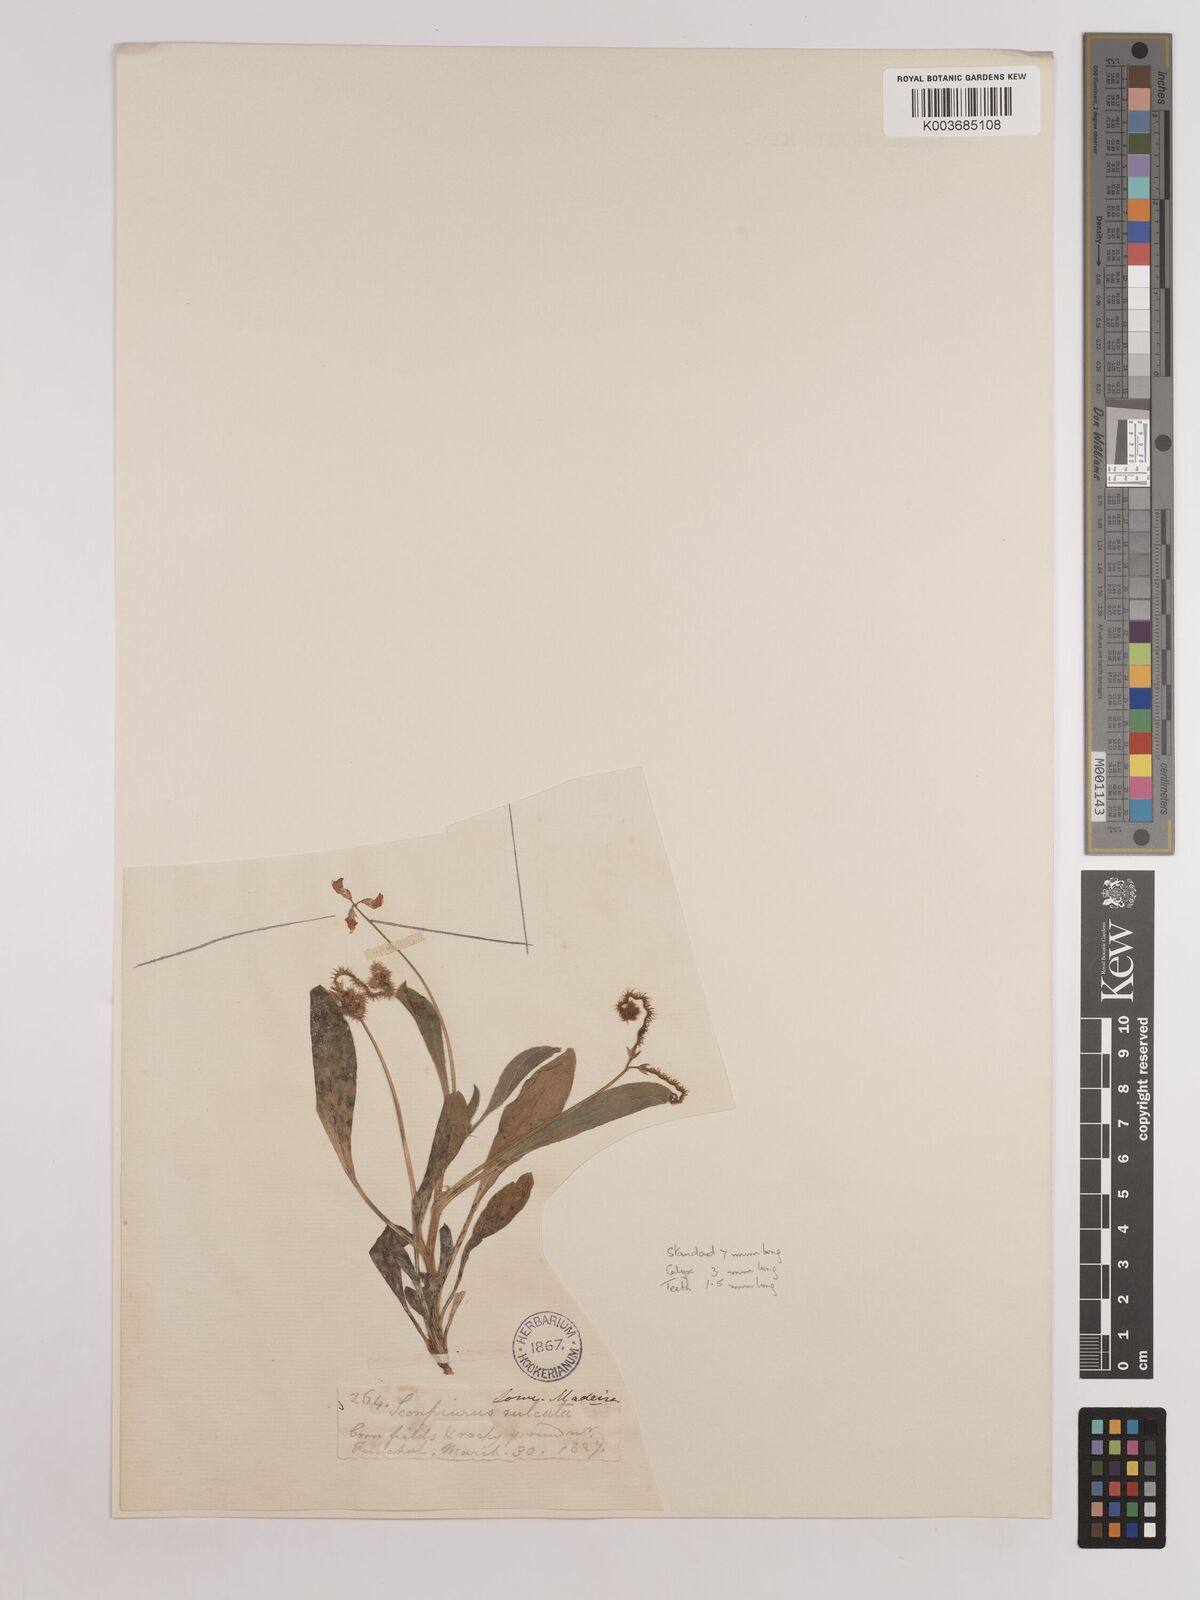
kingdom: Plantae
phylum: Tracheophyta
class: Magnoliopsida
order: Fabales
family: Fabaceae
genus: Scorpiurus
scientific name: Scorpiurus muricatus
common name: Caterpillar-plant
